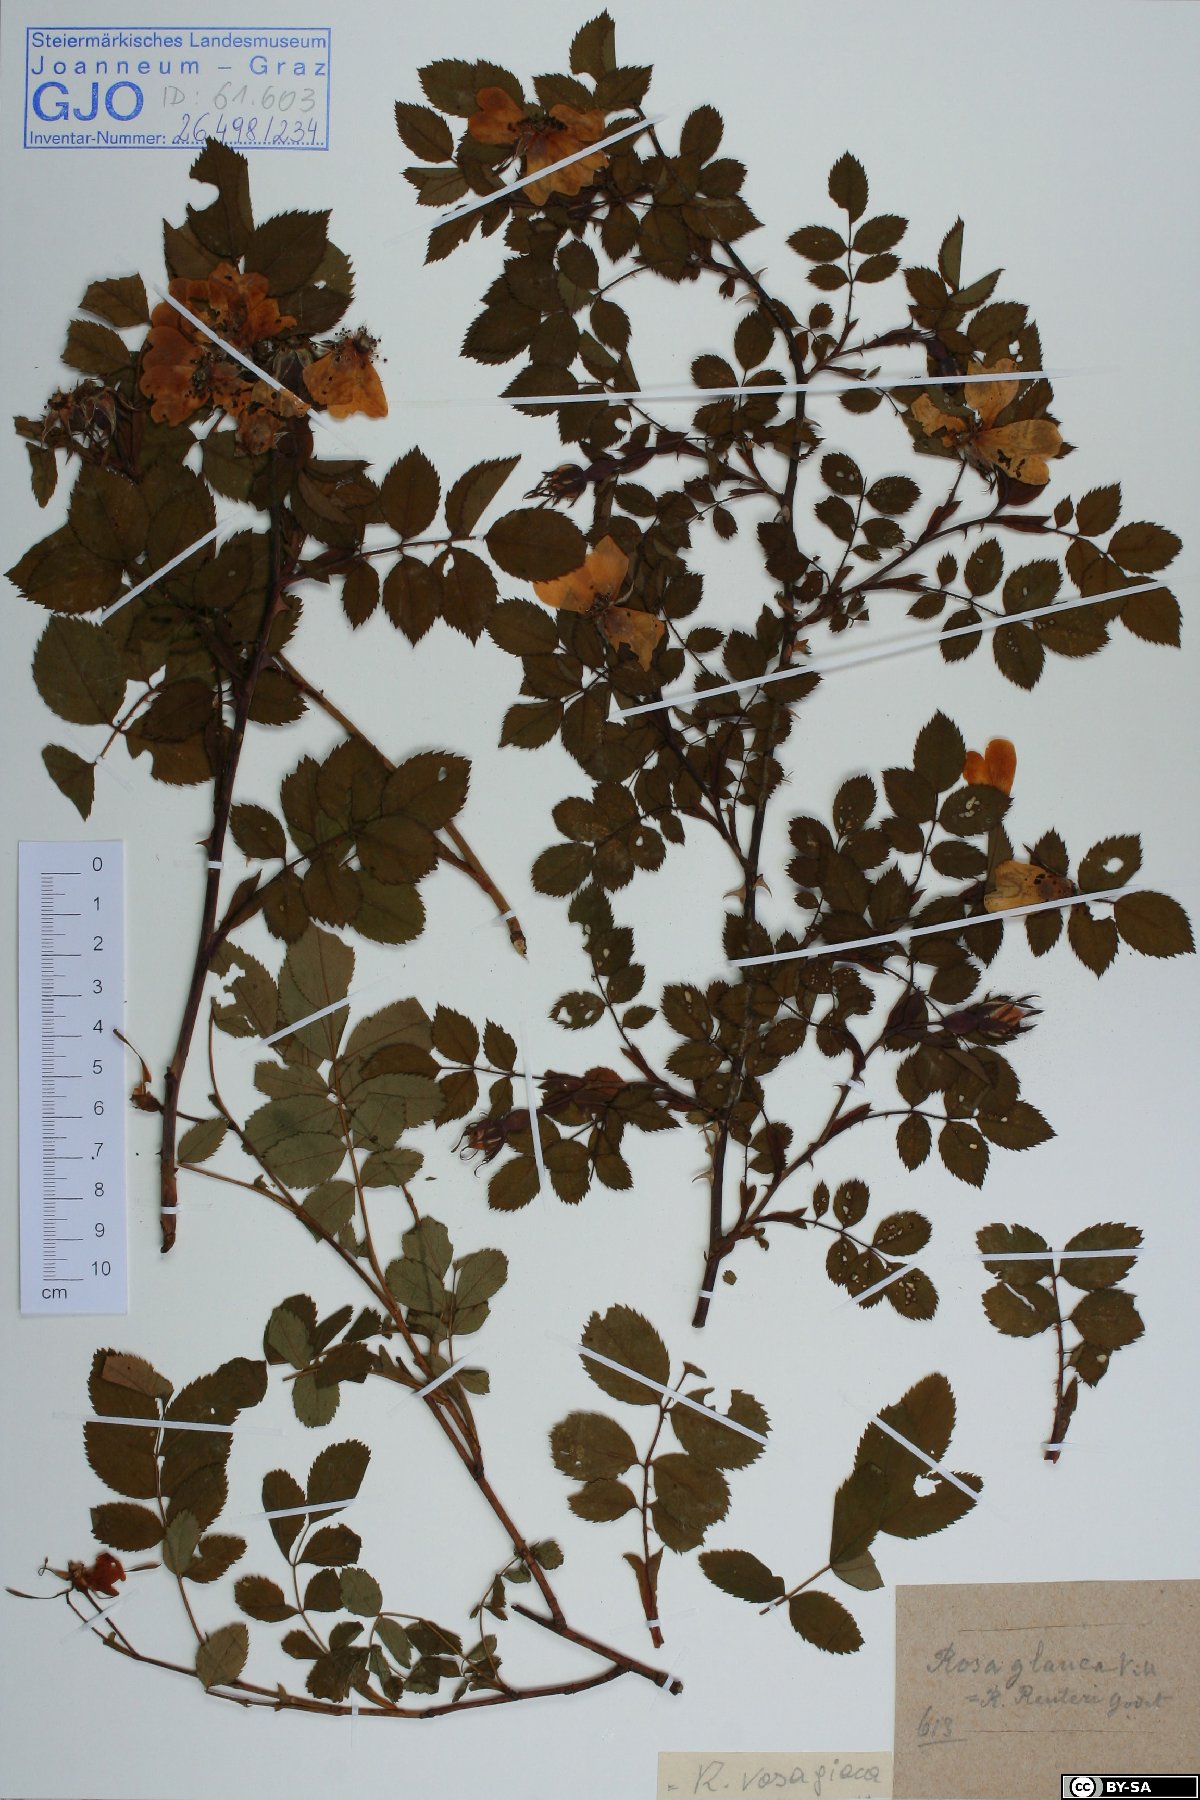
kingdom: Plantae
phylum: Tracheophyta
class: Magnoliopsida
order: Rosales
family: Rosaceae
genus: Rosa
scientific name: Rosa vosagiaca
